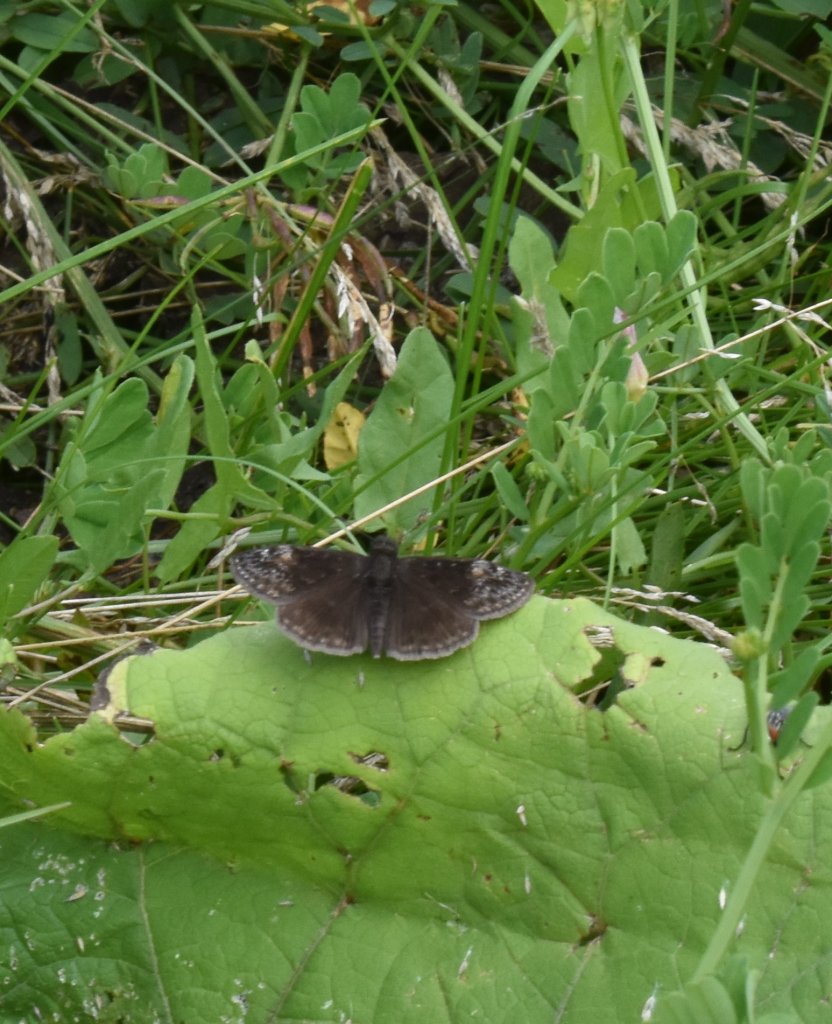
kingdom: Animalia
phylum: Arthropoda
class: Insecta
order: Lepidoptera
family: Hesperiidae
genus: Gesta
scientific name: Gesta
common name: Wild Indigo Duskywing
